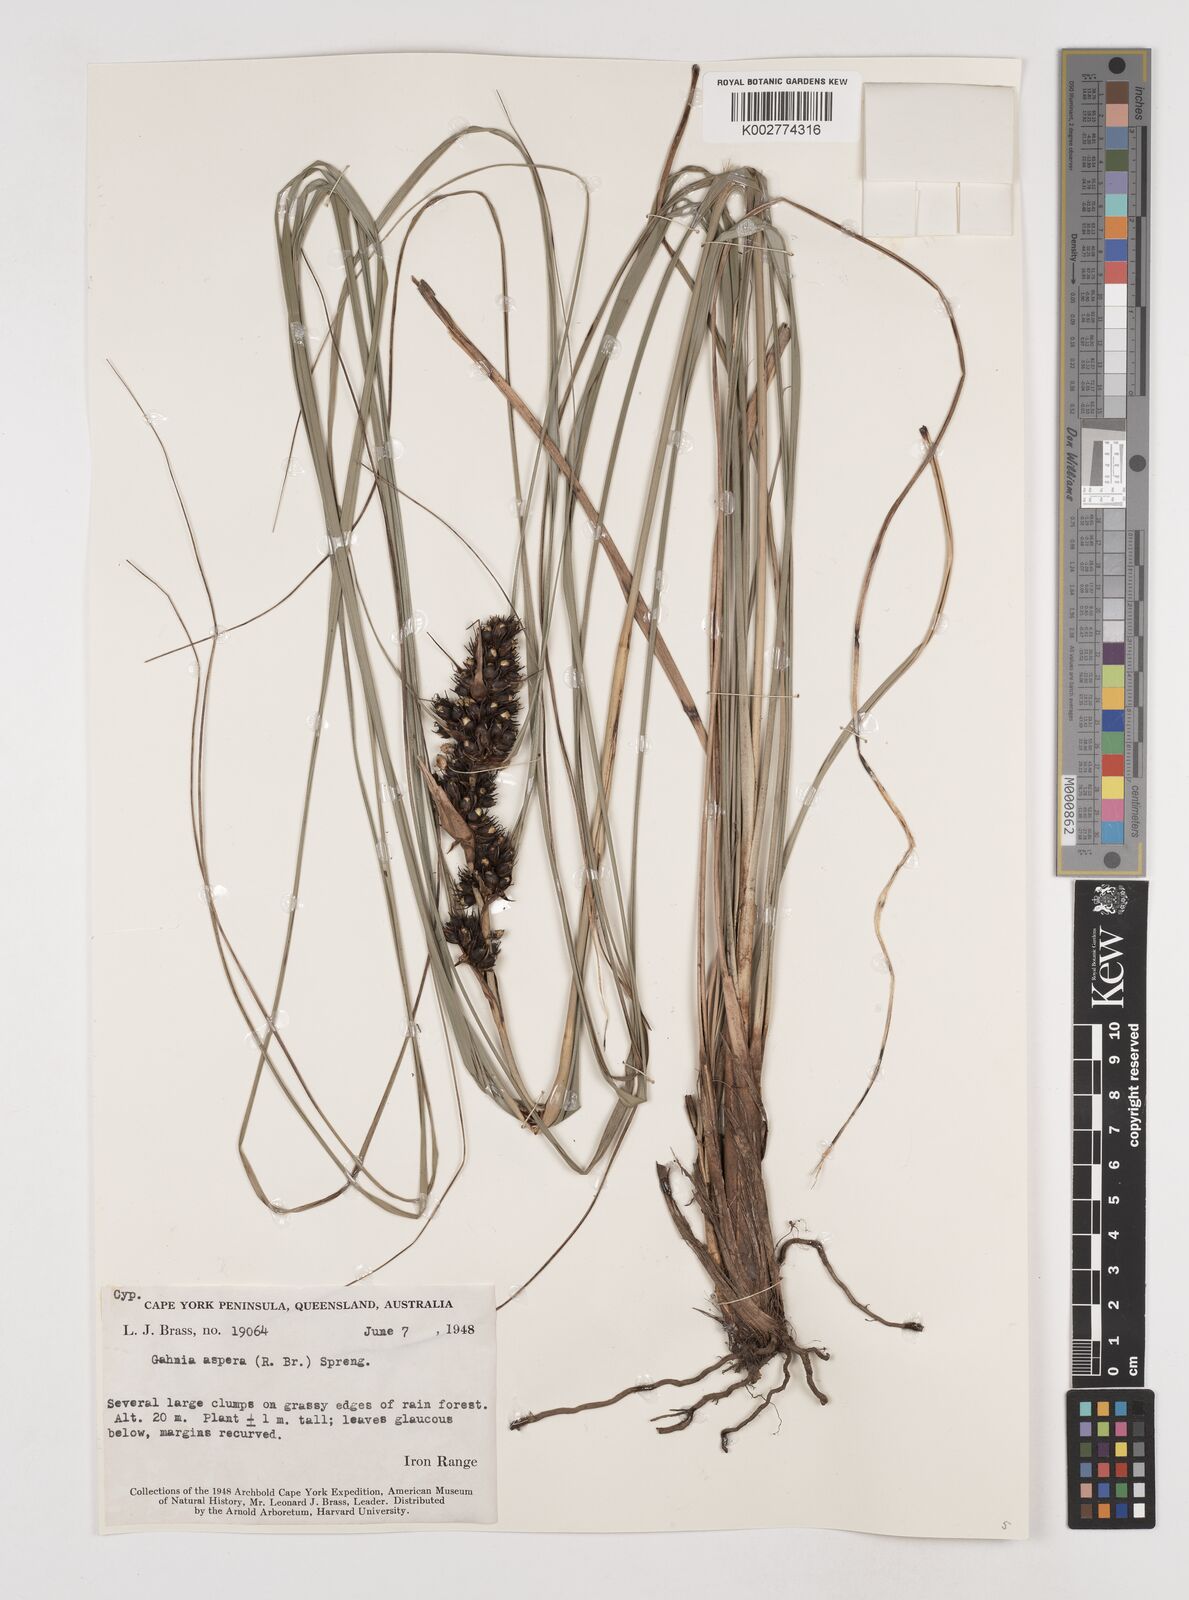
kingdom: Plantae
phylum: Tracheophyta
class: Liliopsida
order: Poales
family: Cyperaceae
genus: Gahnia
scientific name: Gahnia aspera
